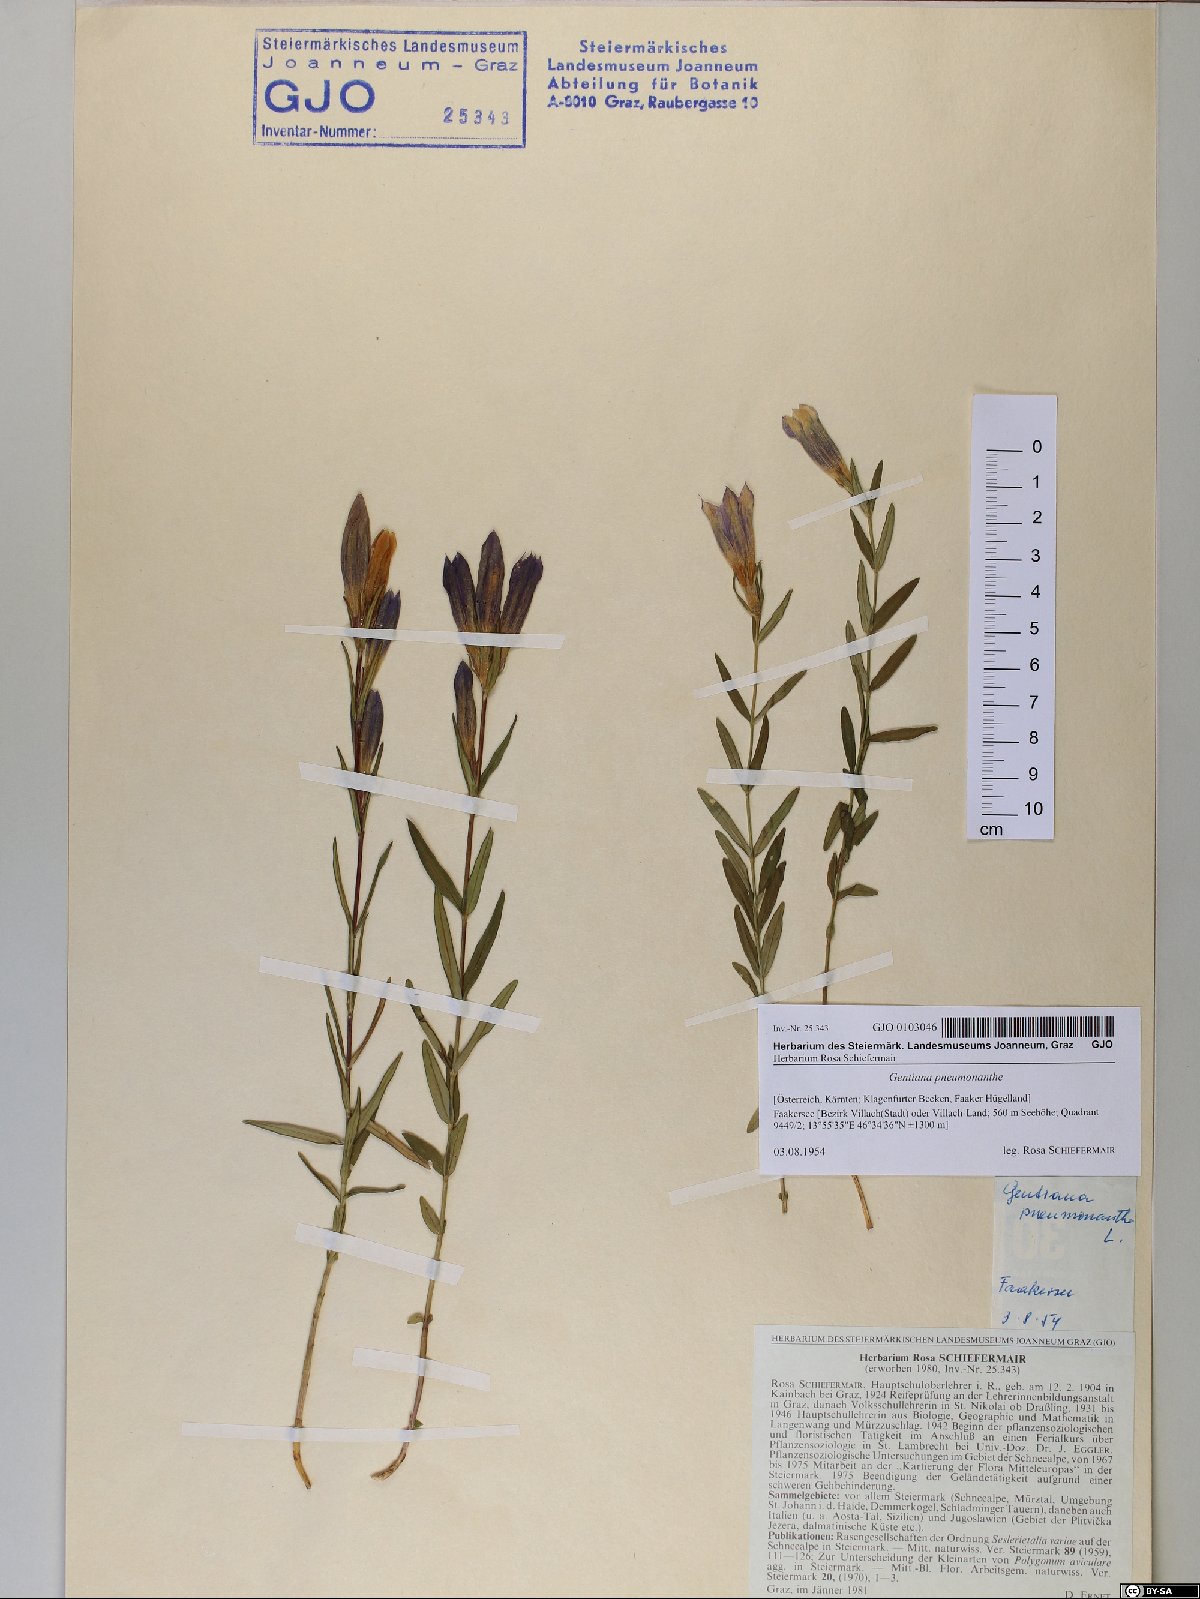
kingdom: Plantae
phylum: Tracheophyta
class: Magnoliopsida
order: Gentianales
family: Gentianaceae
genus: Gentiana
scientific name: Gentiana pneumonanthe
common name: Marsh gentian
